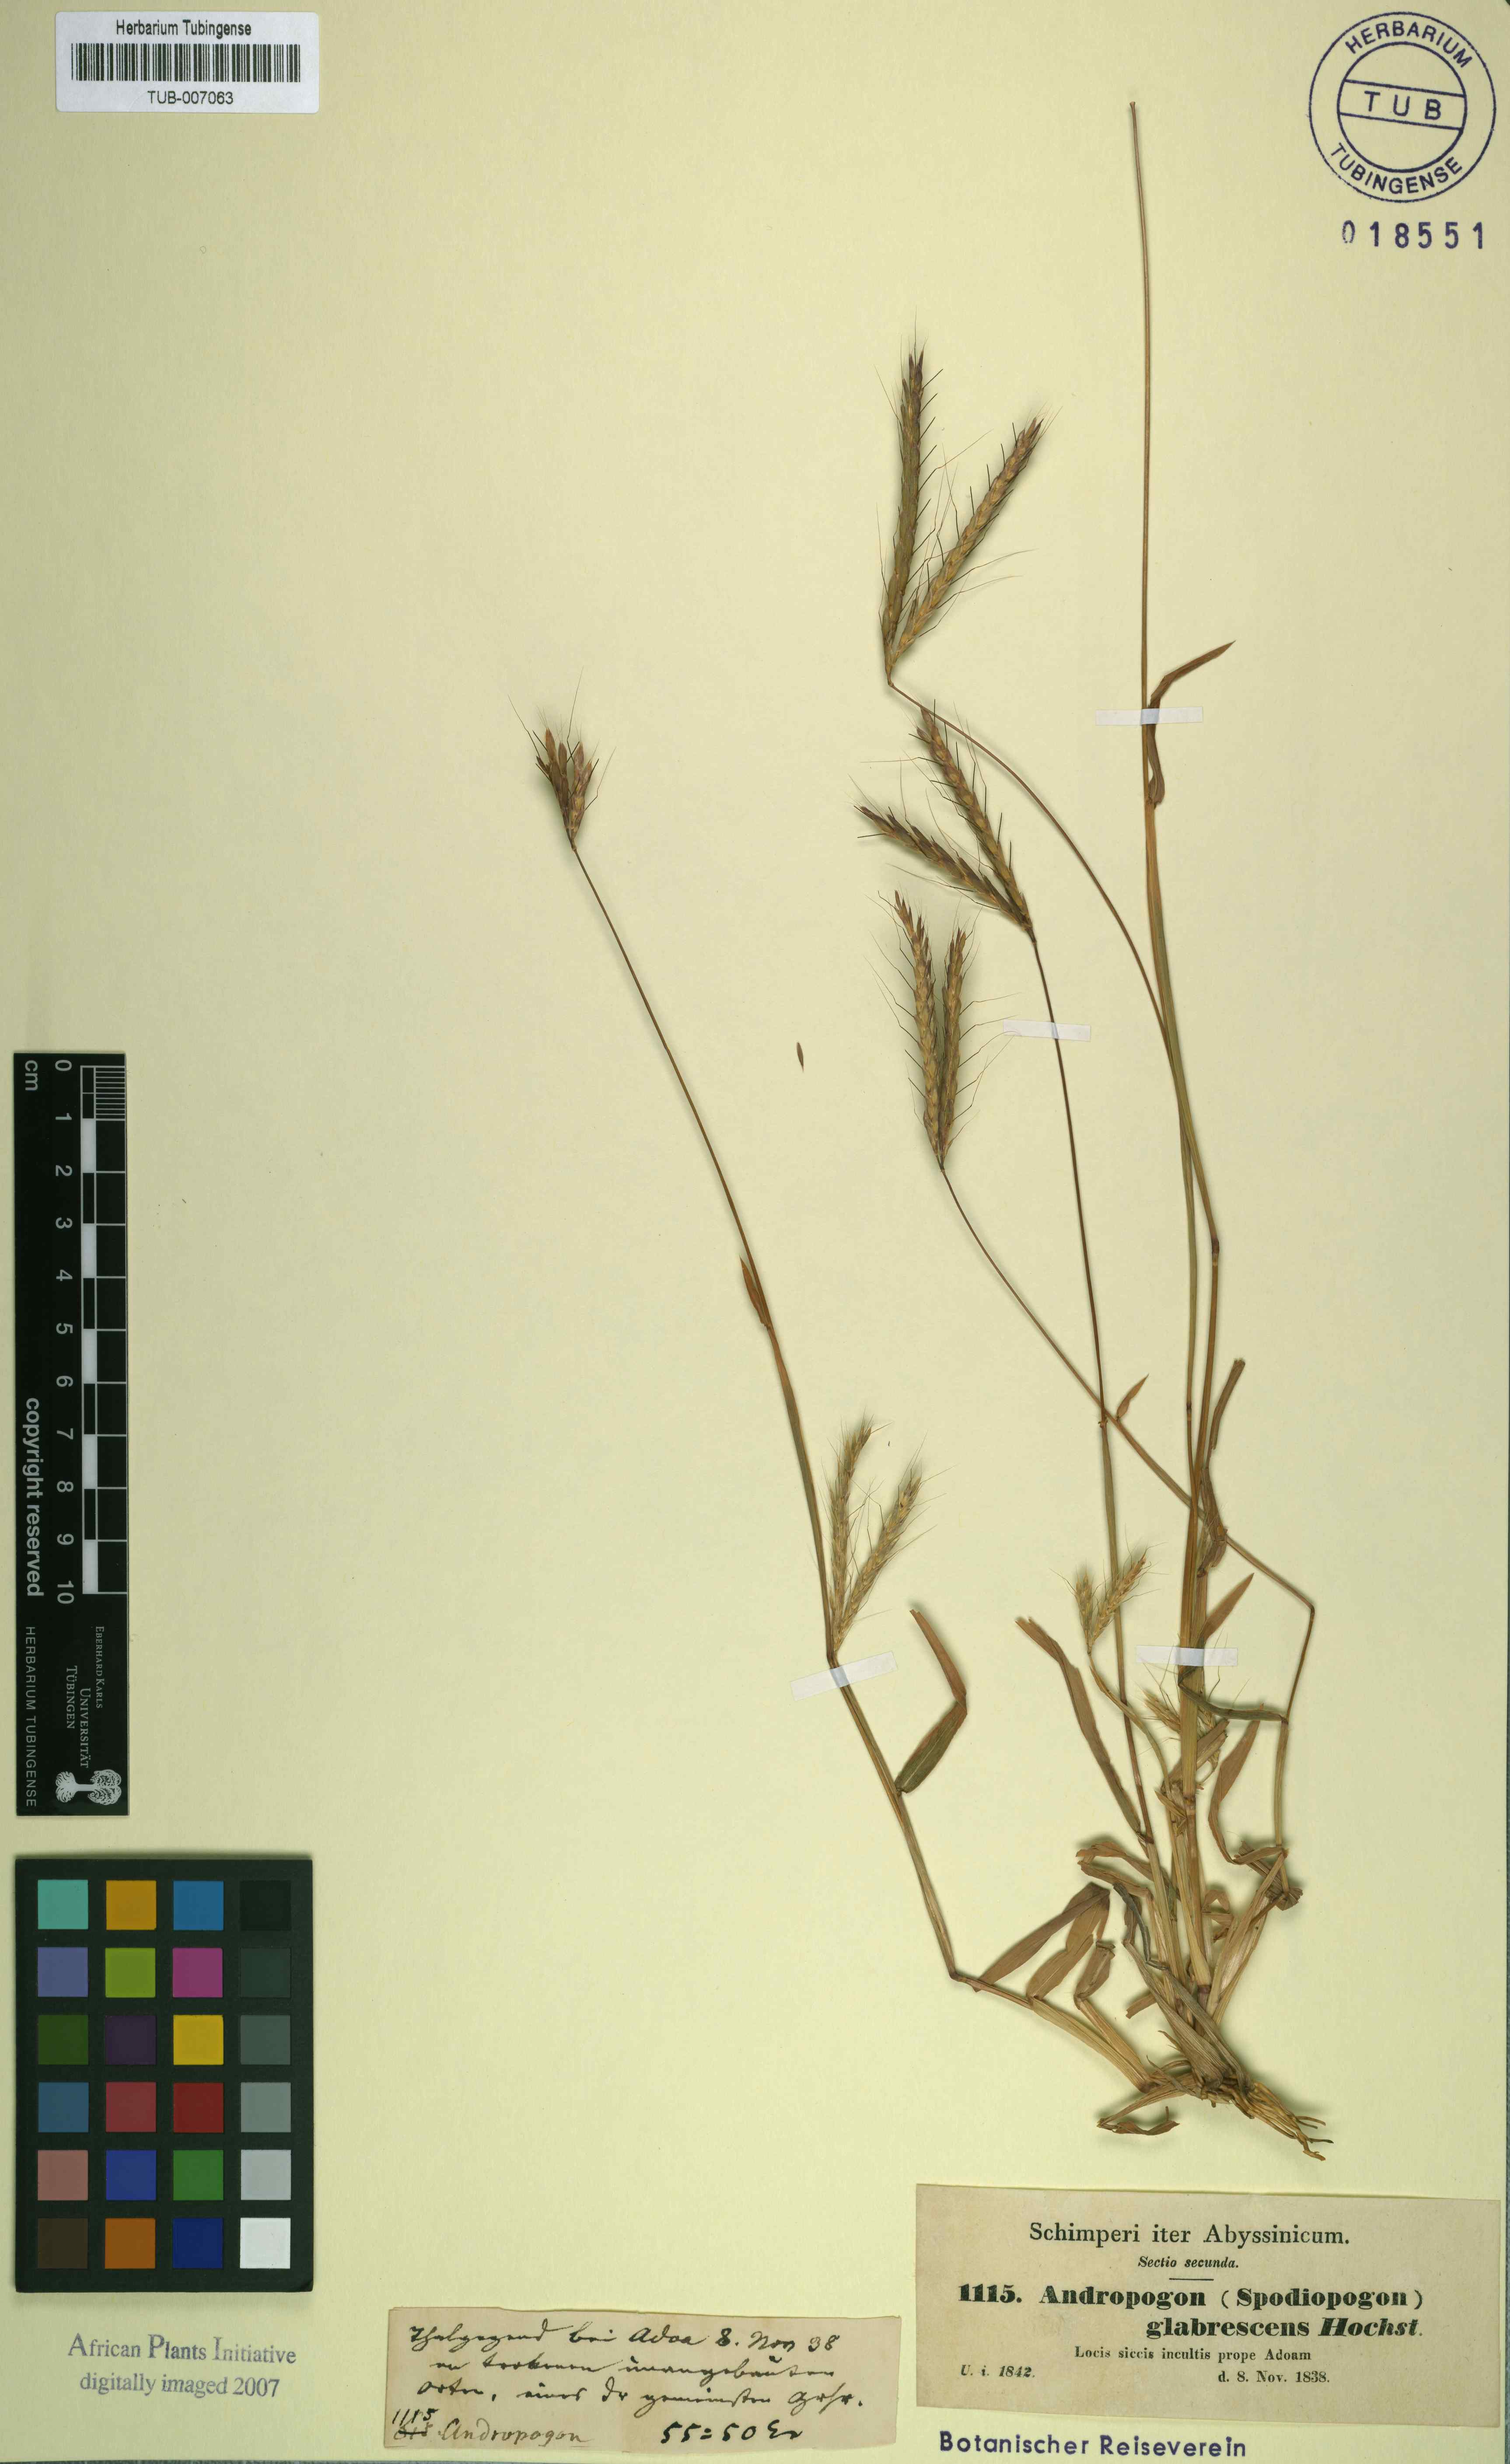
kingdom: Plantae
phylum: Tracheophyta
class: Liliopsida
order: Poales
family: Poaceae
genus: Andropogon
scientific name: Andropogon abyssinicus
